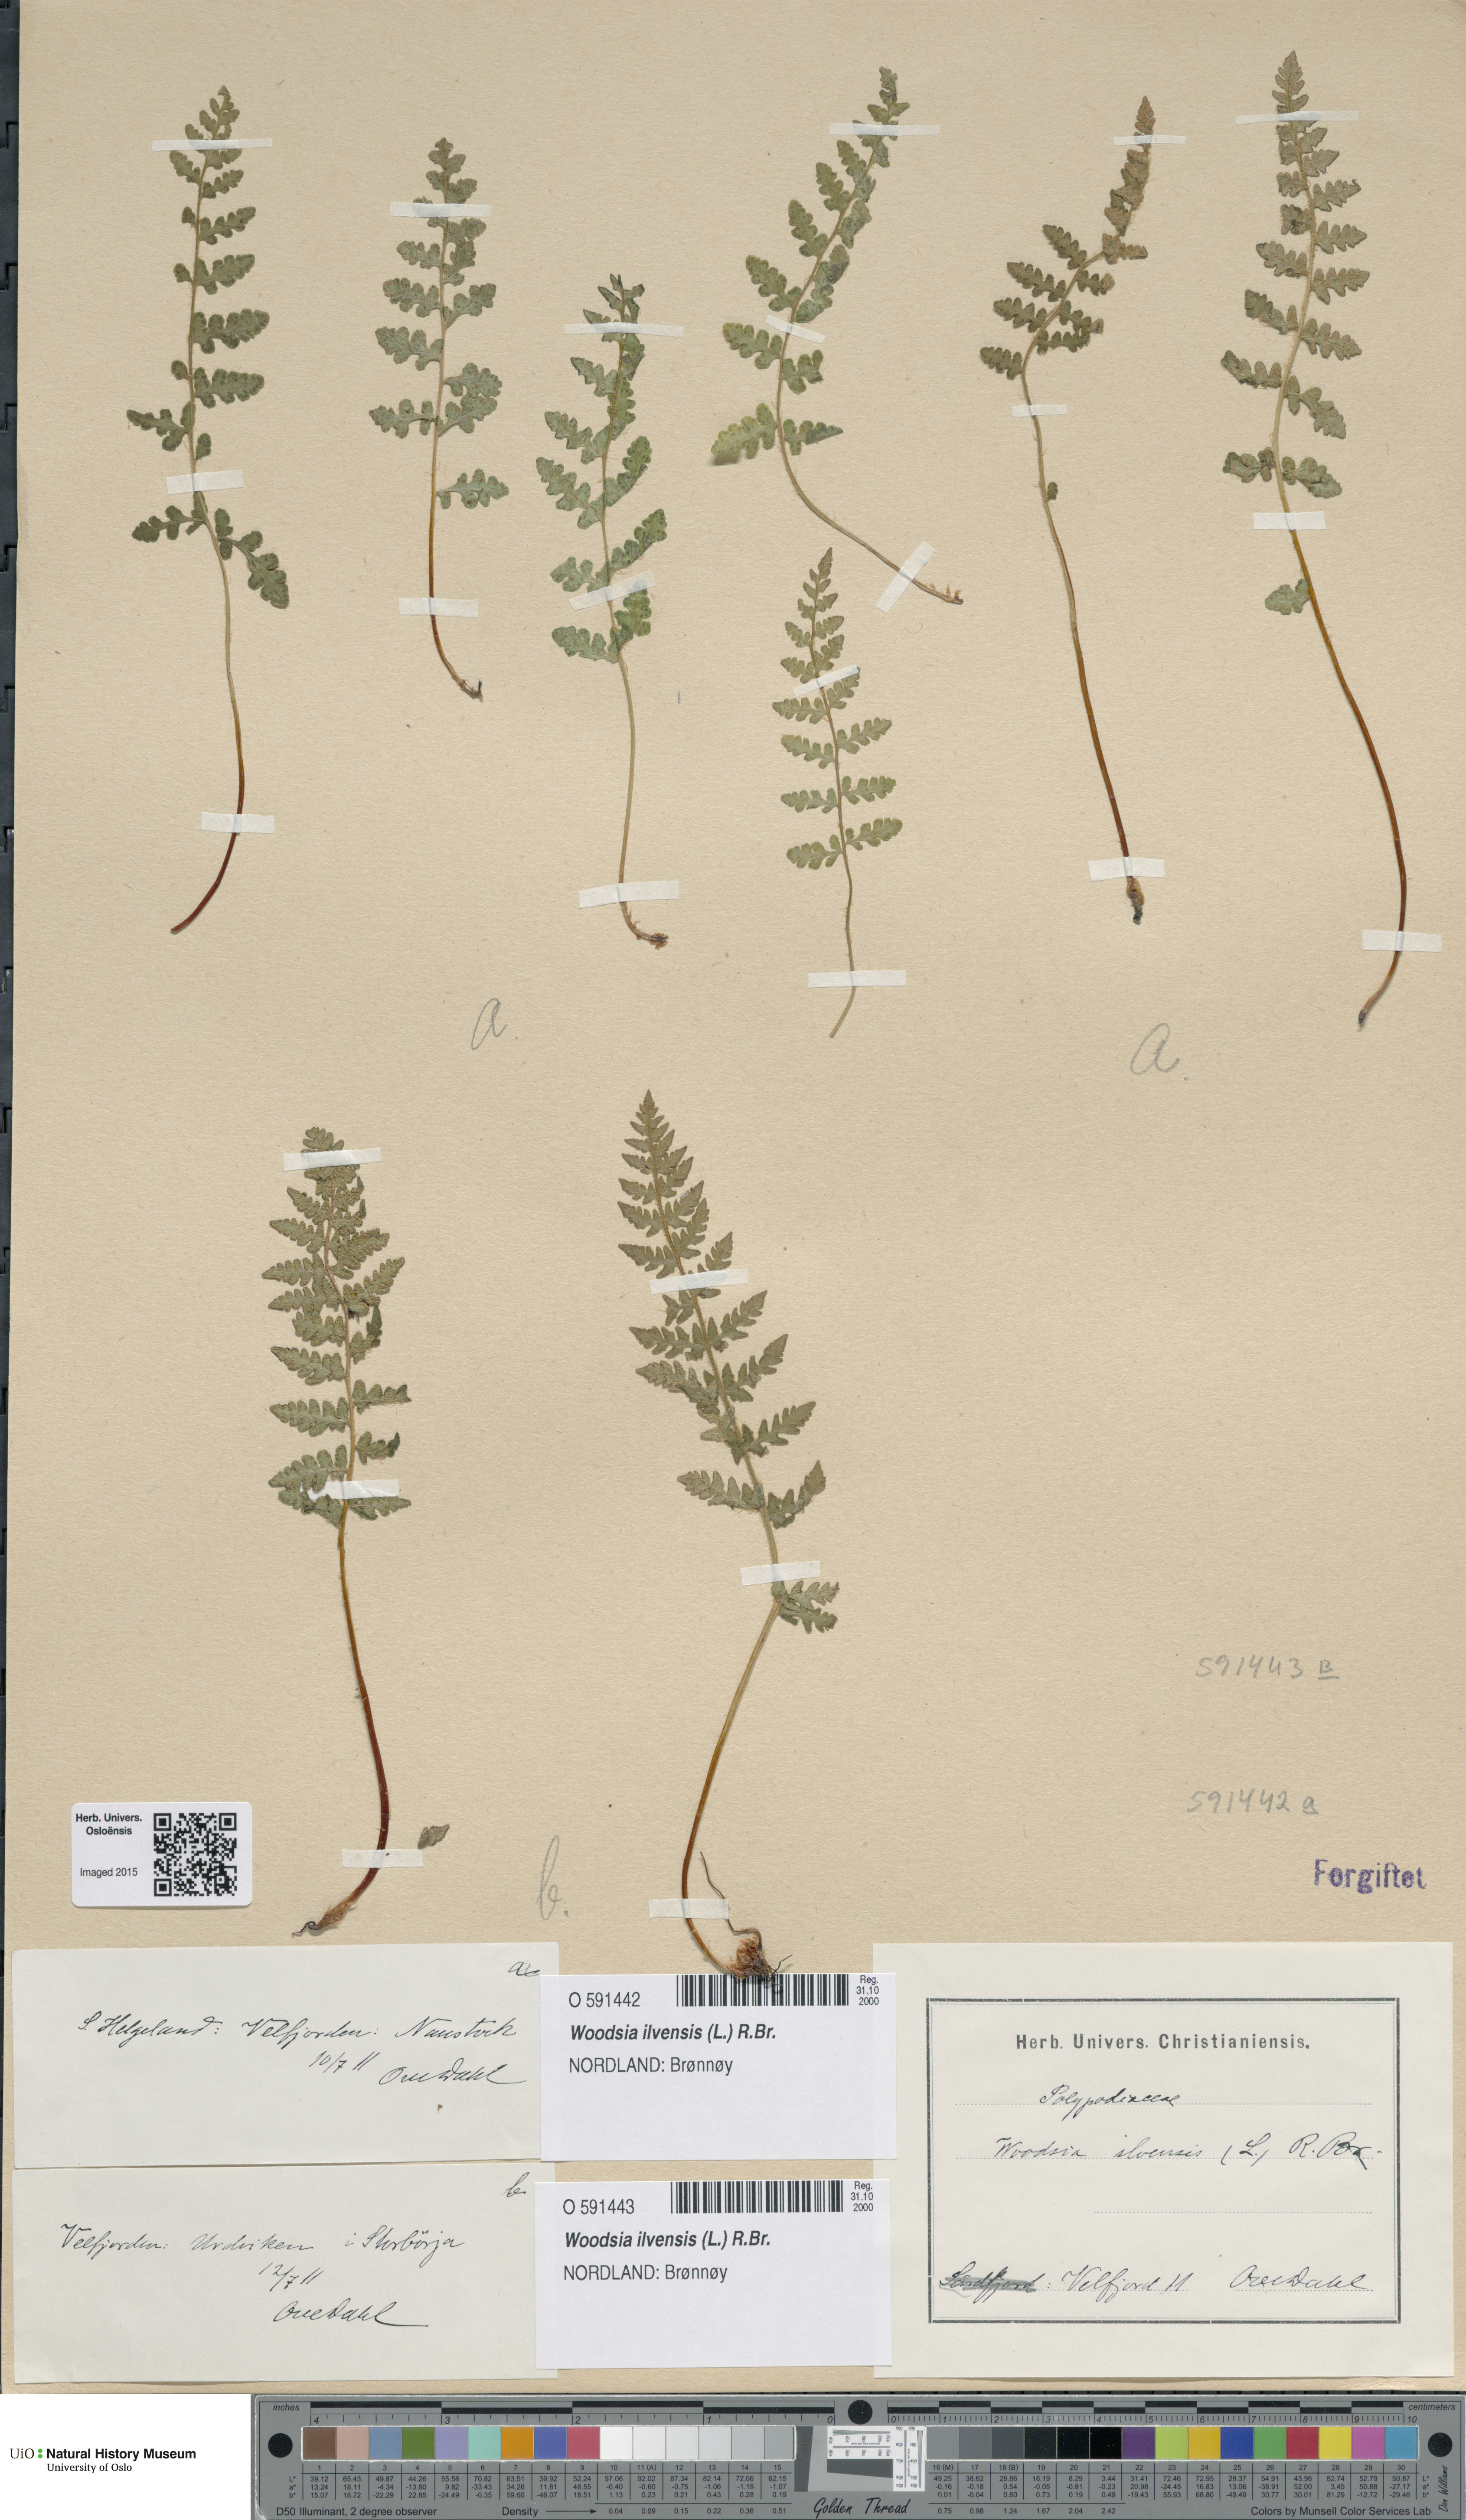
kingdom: Plantae
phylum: Tracheophyta
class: Polypodiopsida
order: Polypodiales
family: Woodsiaceae
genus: Woodsia
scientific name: Woodsia ilvensis
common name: Fragrant woodsia
